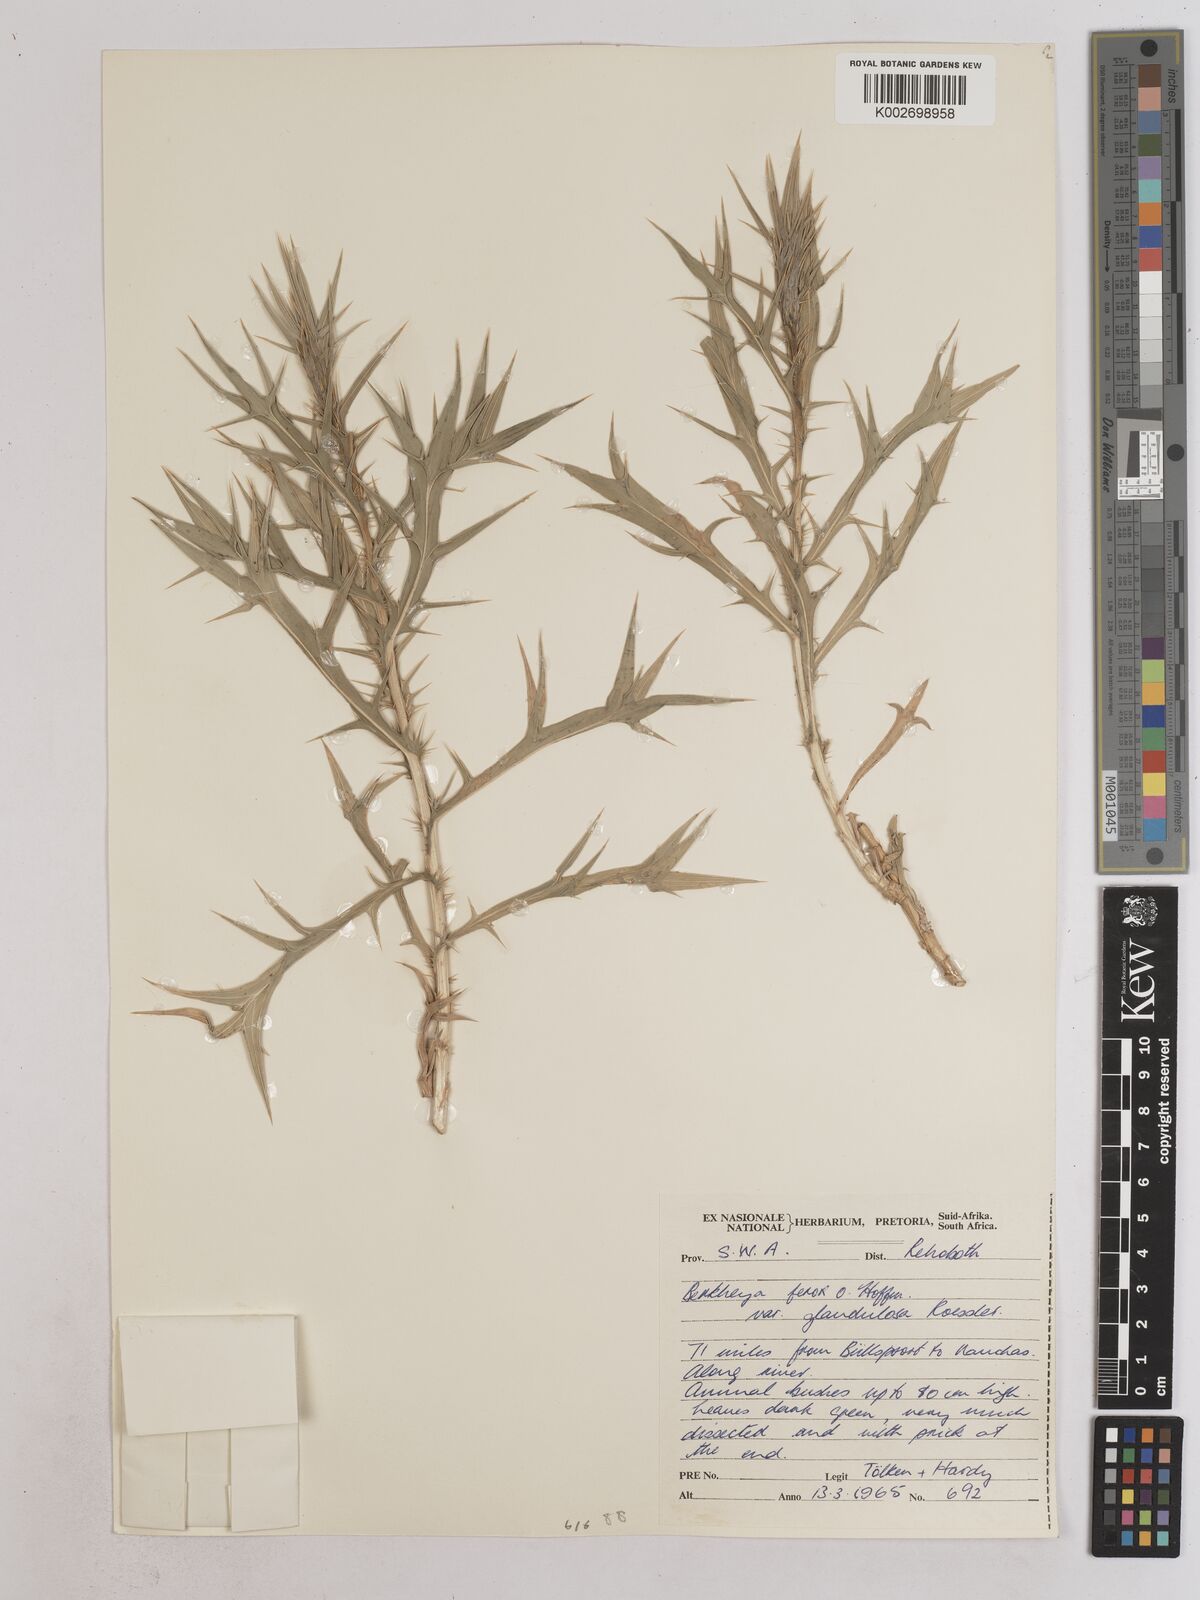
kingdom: Plantae
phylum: Tracheophyta
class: Magnoliopsida
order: Asterales
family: Asteraceae
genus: Berkheya
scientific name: Berkheya ferox
